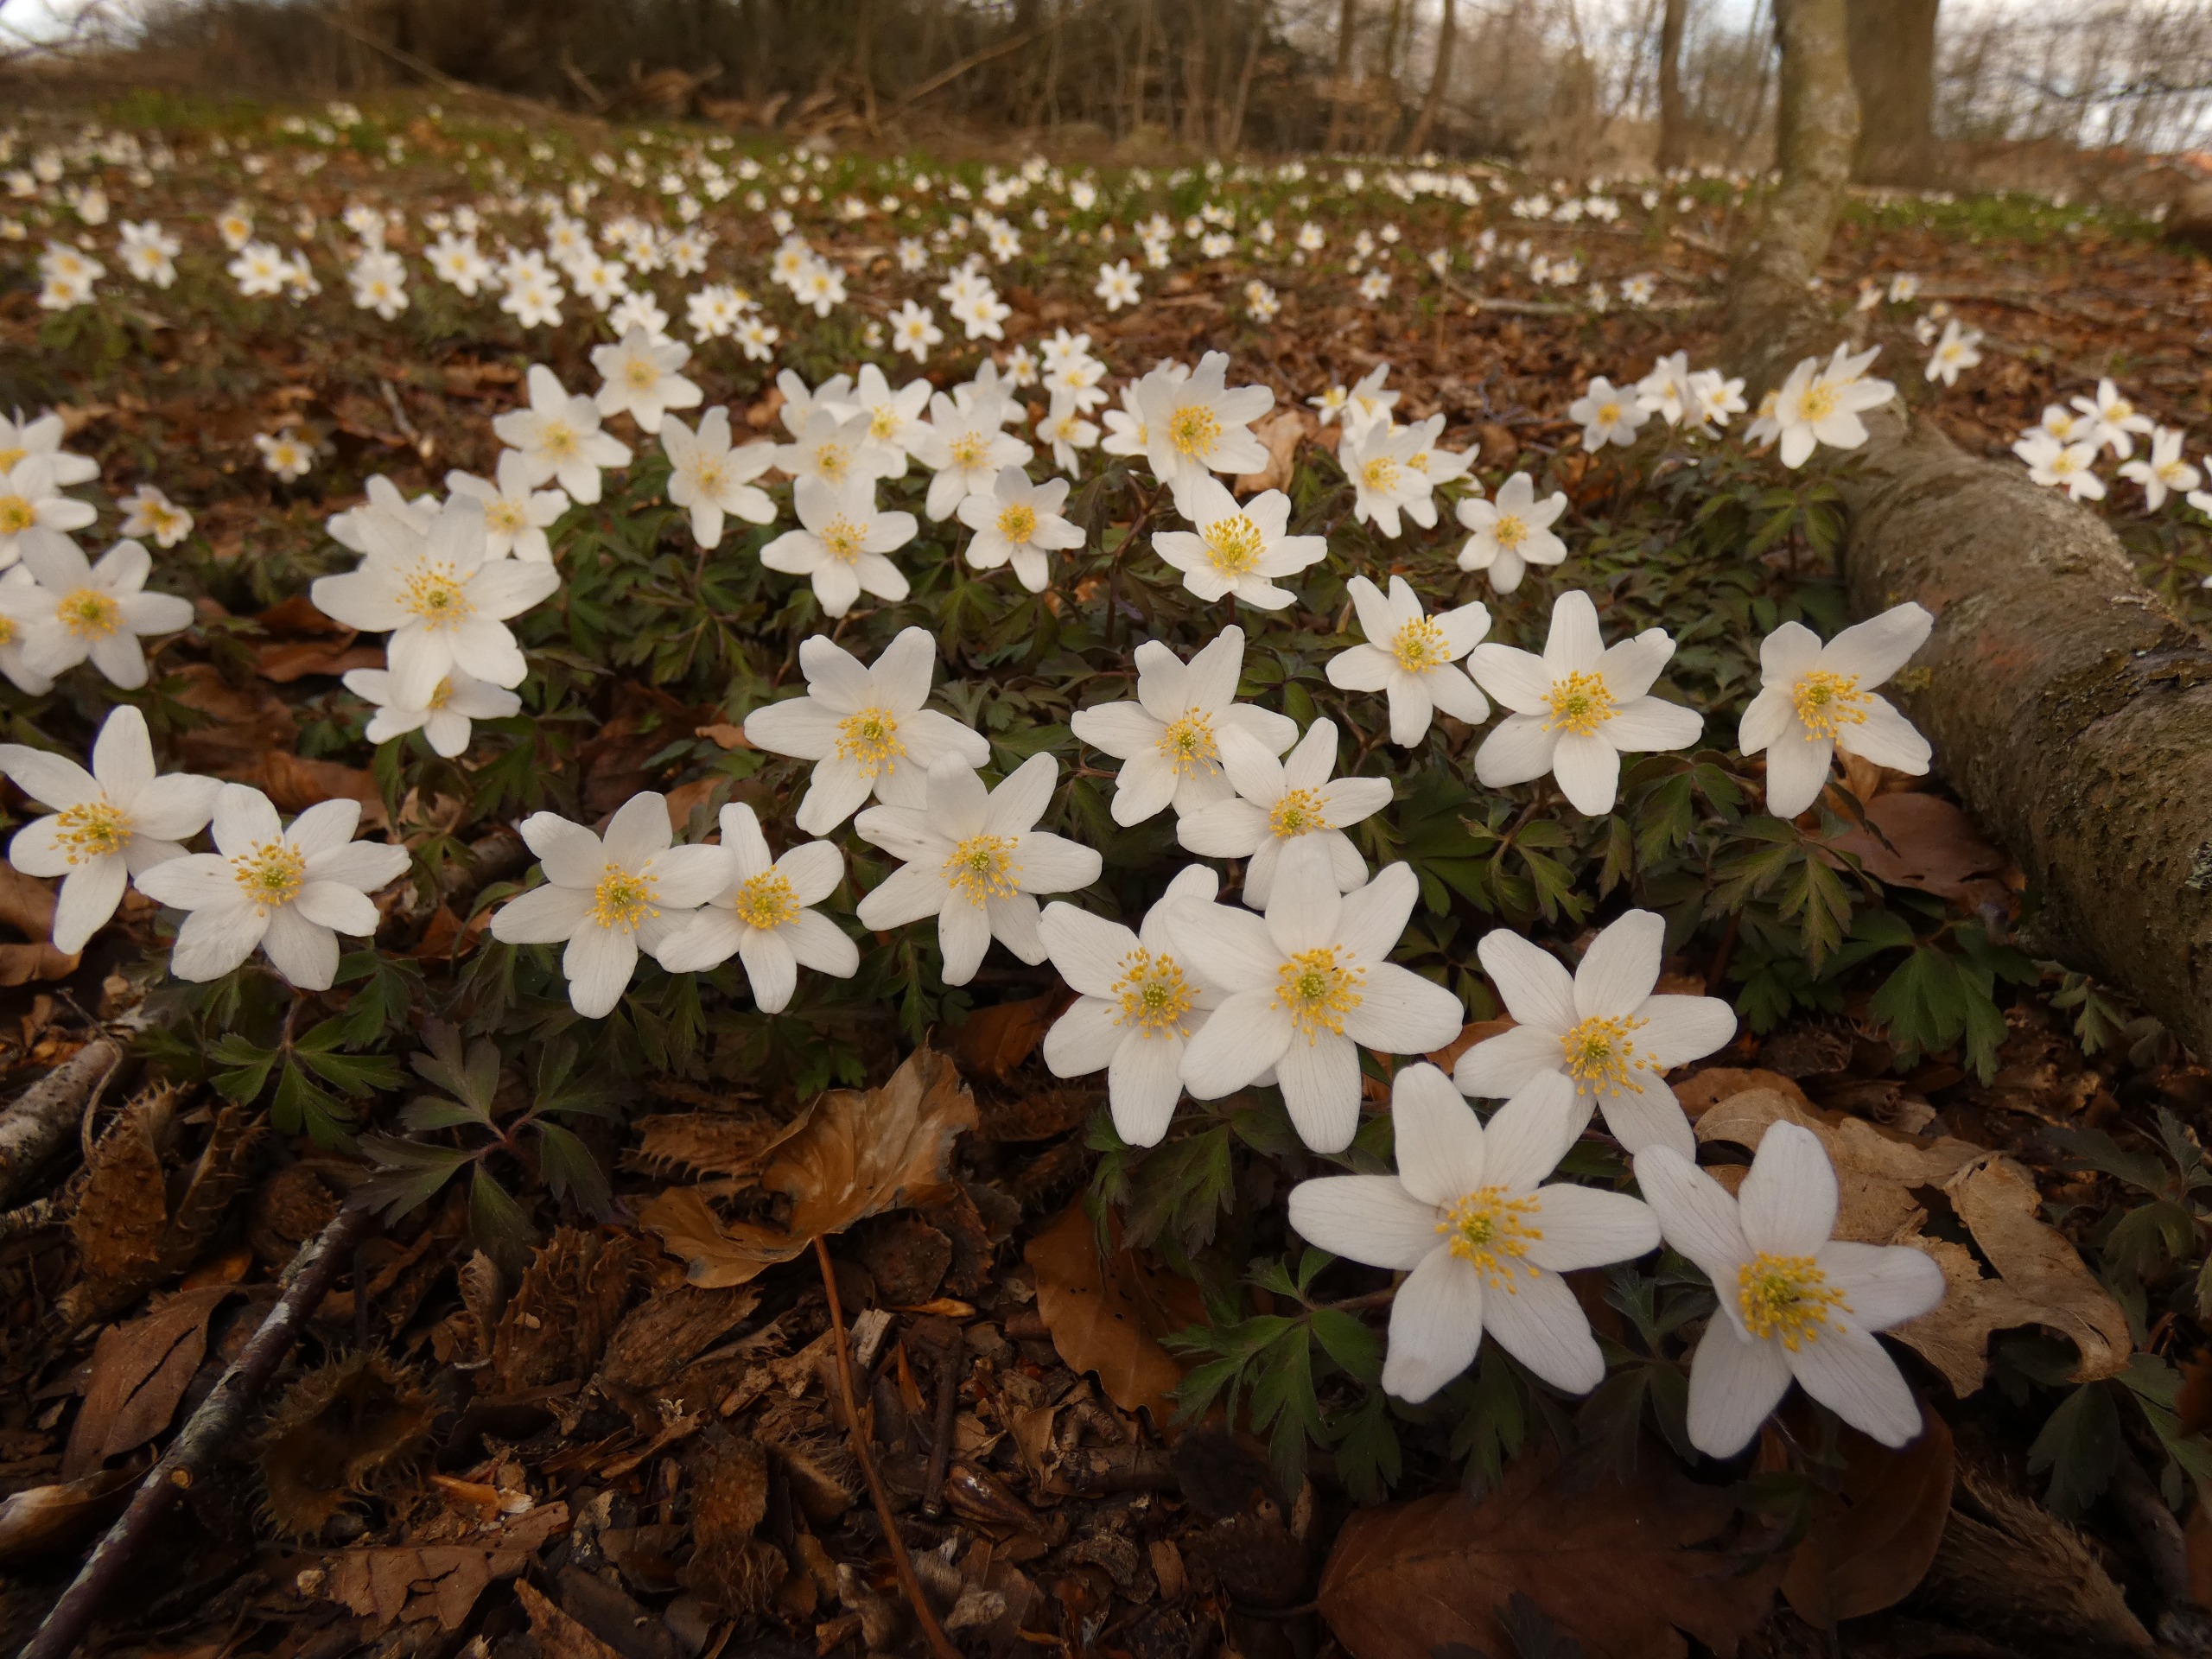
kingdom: Plantae
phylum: Tracheophyta
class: Magnoliopsida
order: Ranunculales
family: Ranunculaceae
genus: Anemone
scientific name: Anemone nemorosa
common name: Hvid anemone
